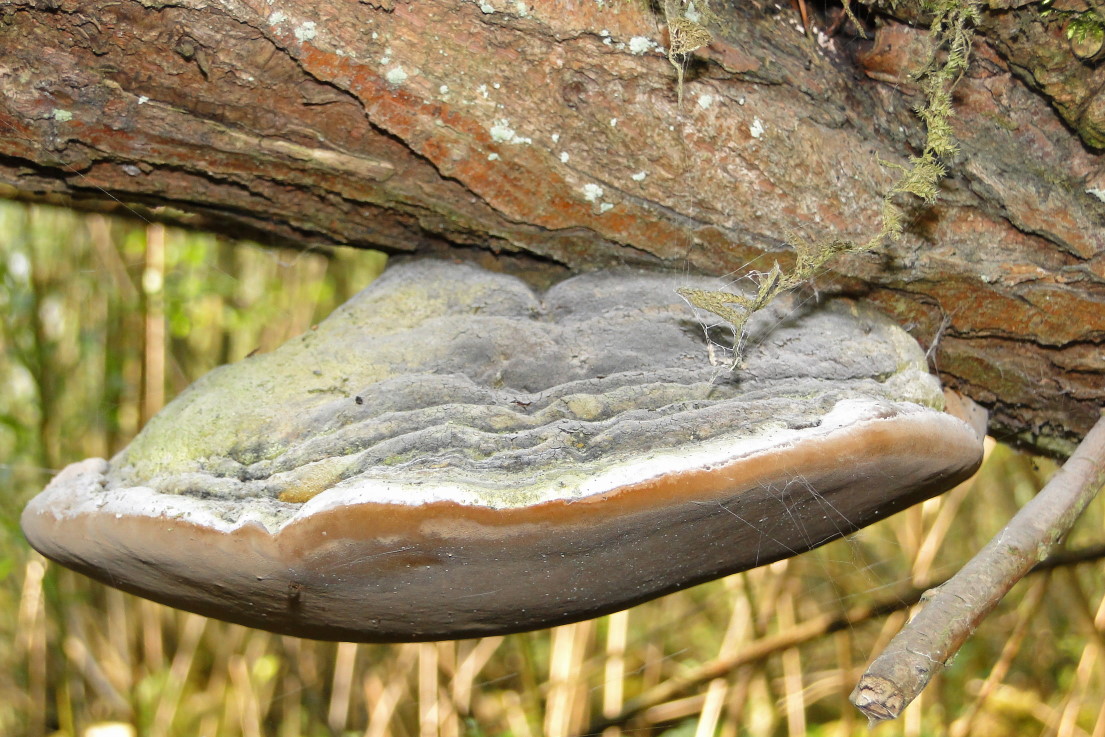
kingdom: Fungi
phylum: Basidiomycota
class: Agaricomycetes
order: Hymenochaetales
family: Hymenochaetaceae
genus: Phellinus
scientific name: Phellinus igniarius
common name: almindelig ildporesvamp
